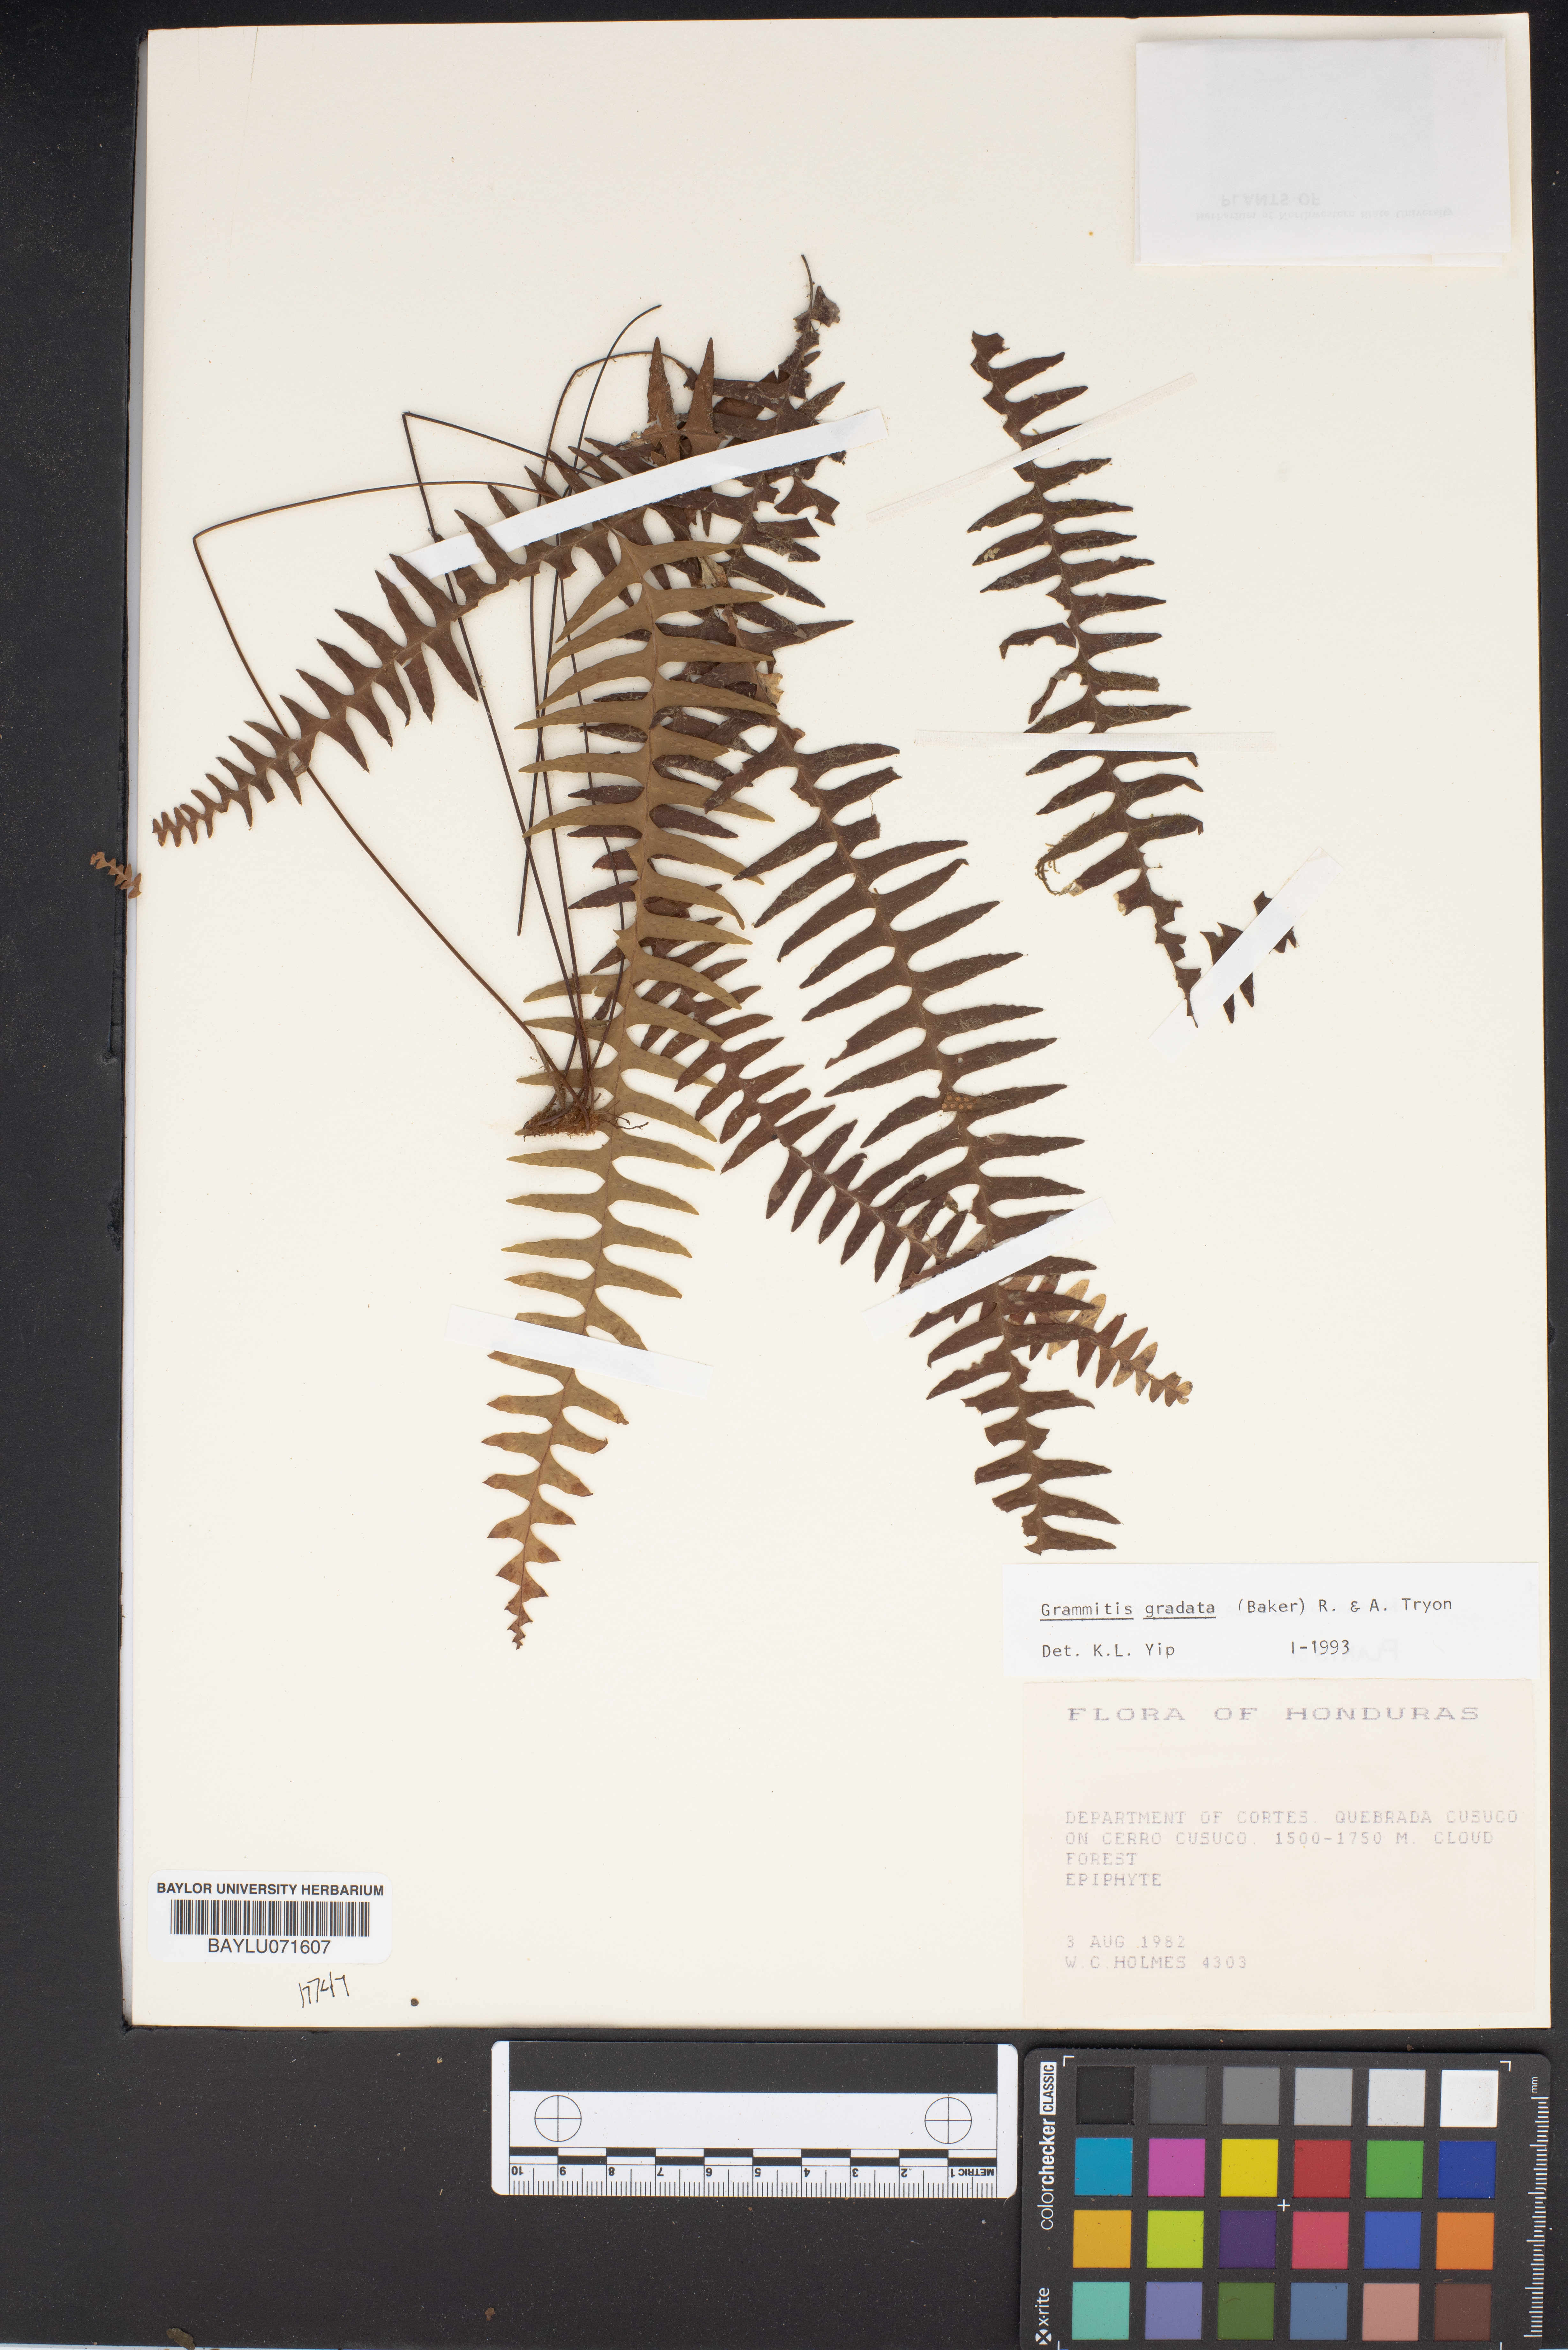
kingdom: Plantae
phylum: Tracheophyta
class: Polypodiopsida
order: Polypodiales
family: Polypodiaceae
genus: Moranopteris
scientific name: Moranopteris gradata
